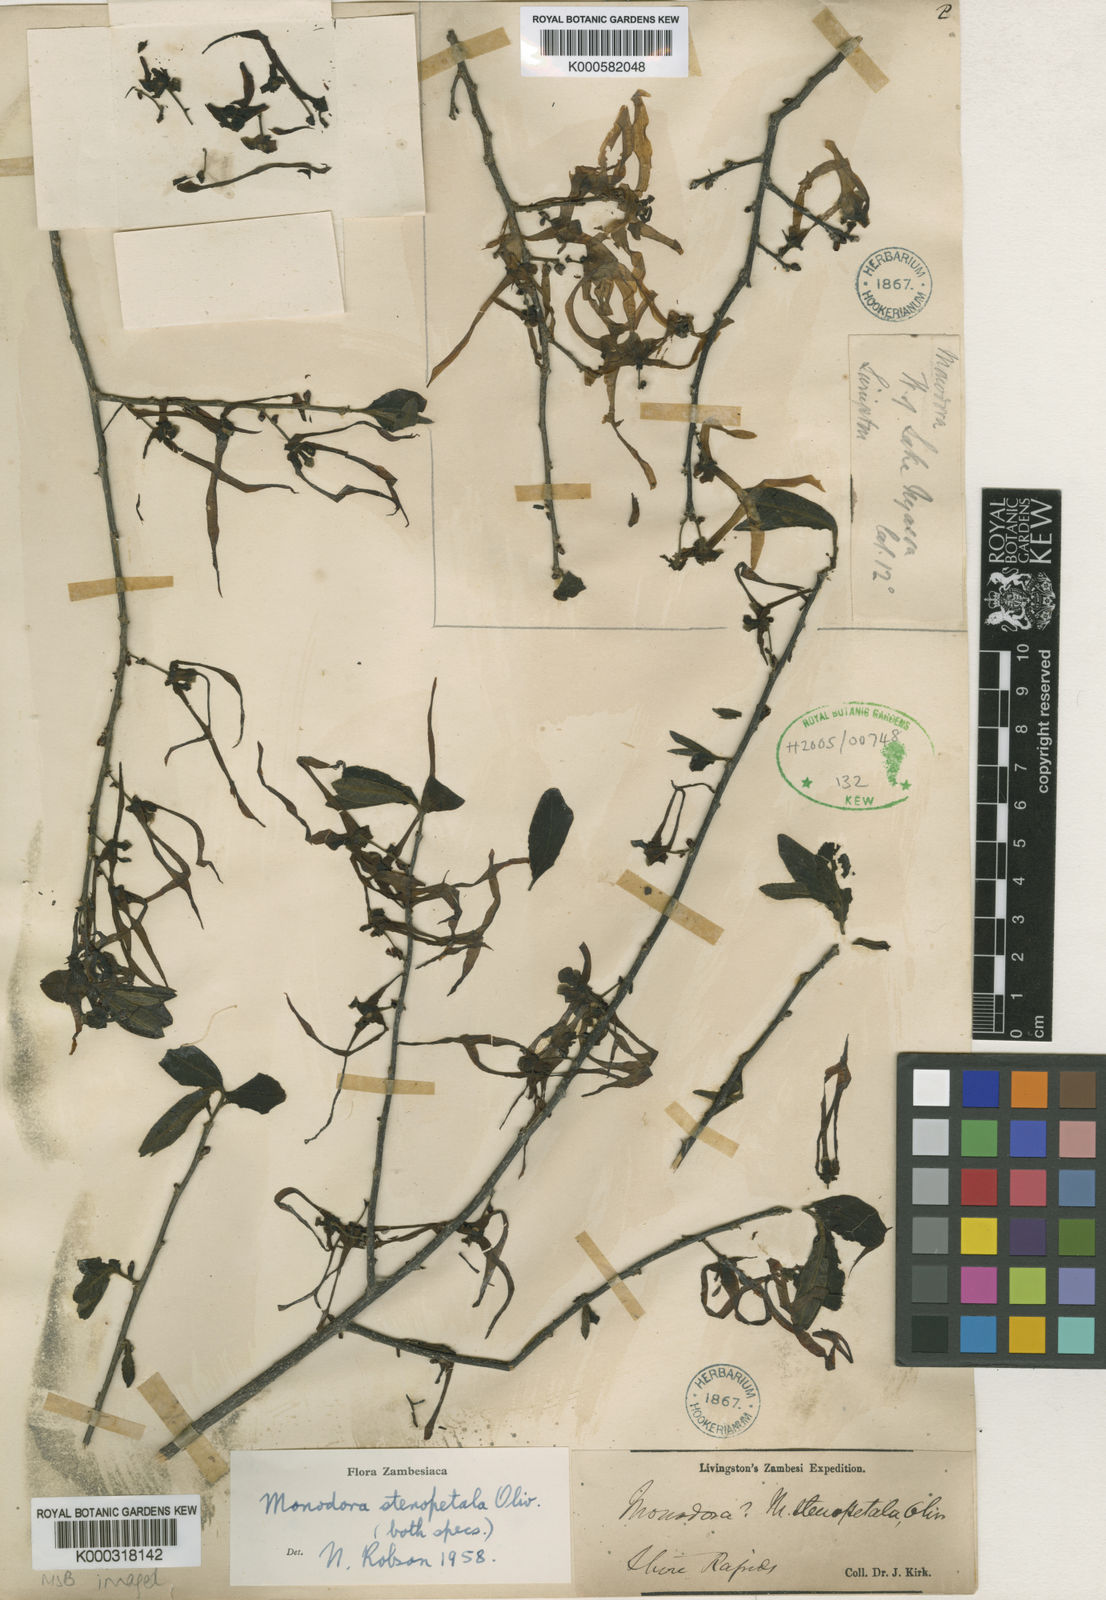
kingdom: Plantae
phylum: Tracheophyta
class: Magnoliopsida
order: Magnoliales
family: Annonaceae
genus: Monodora
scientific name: Monodora stenopetala
